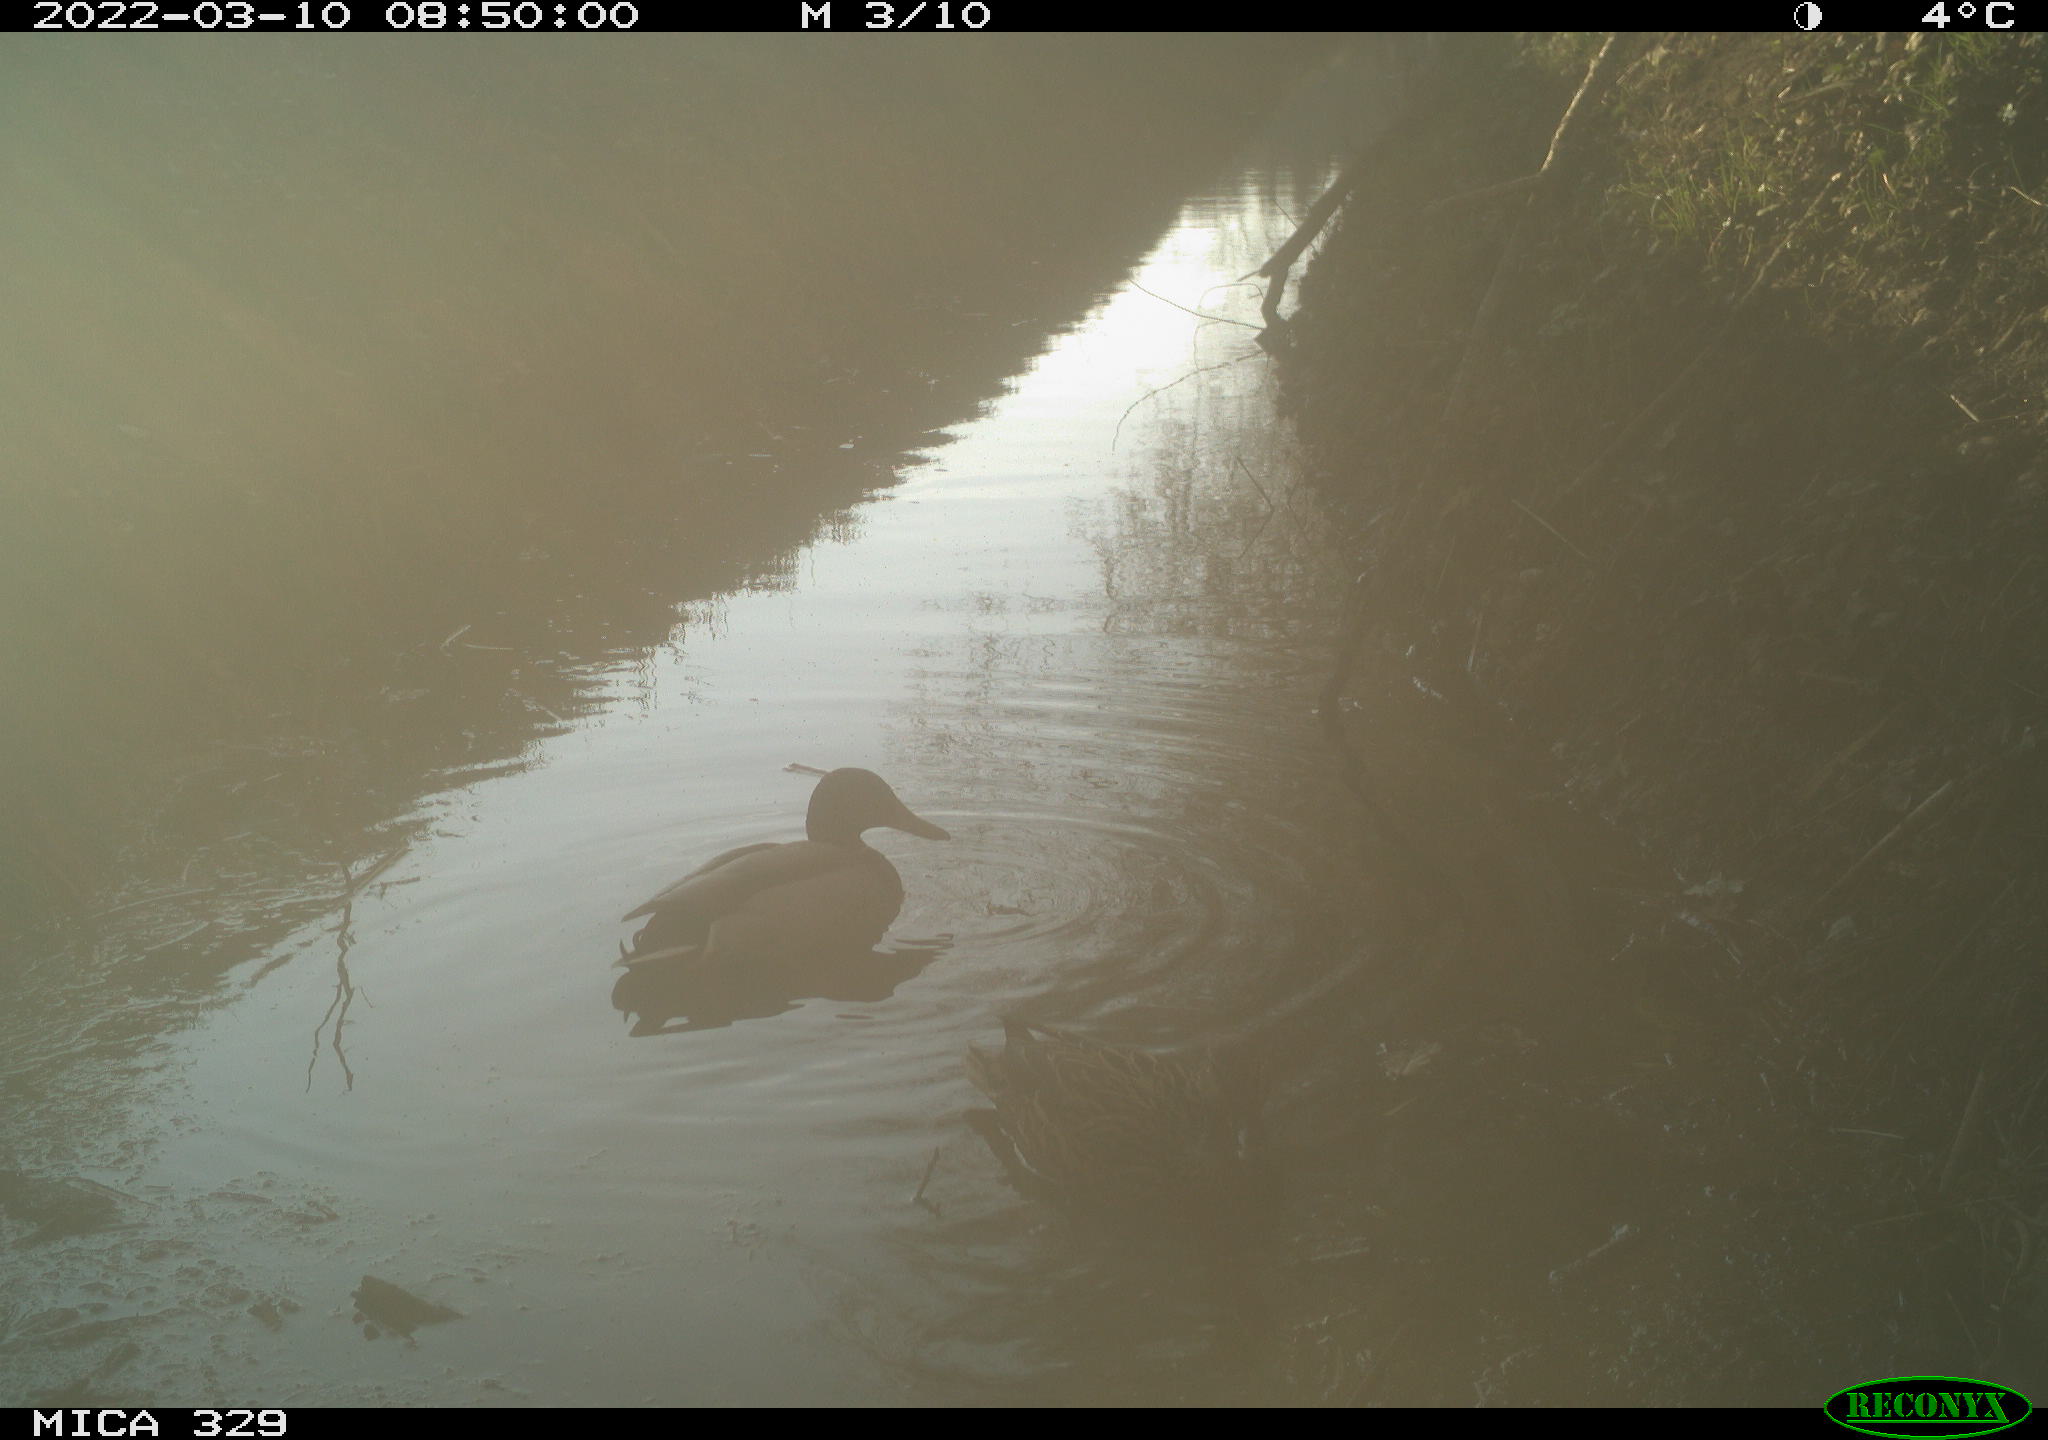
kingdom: Animalia
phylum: Chordata
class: Aves
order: Anseriformes
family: Anatidae
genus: Anas
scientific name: Anas platyrhynchos
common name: Mallard
